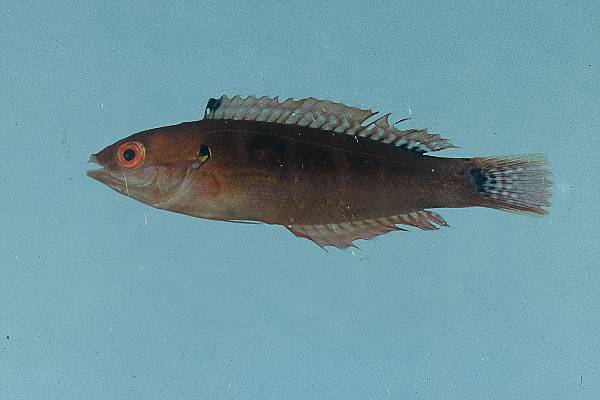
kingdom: Animalia
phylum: Chordata
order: Perciformes
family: Labridae
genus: Coris
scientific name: Coris caudimacula
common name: Spottail coris
